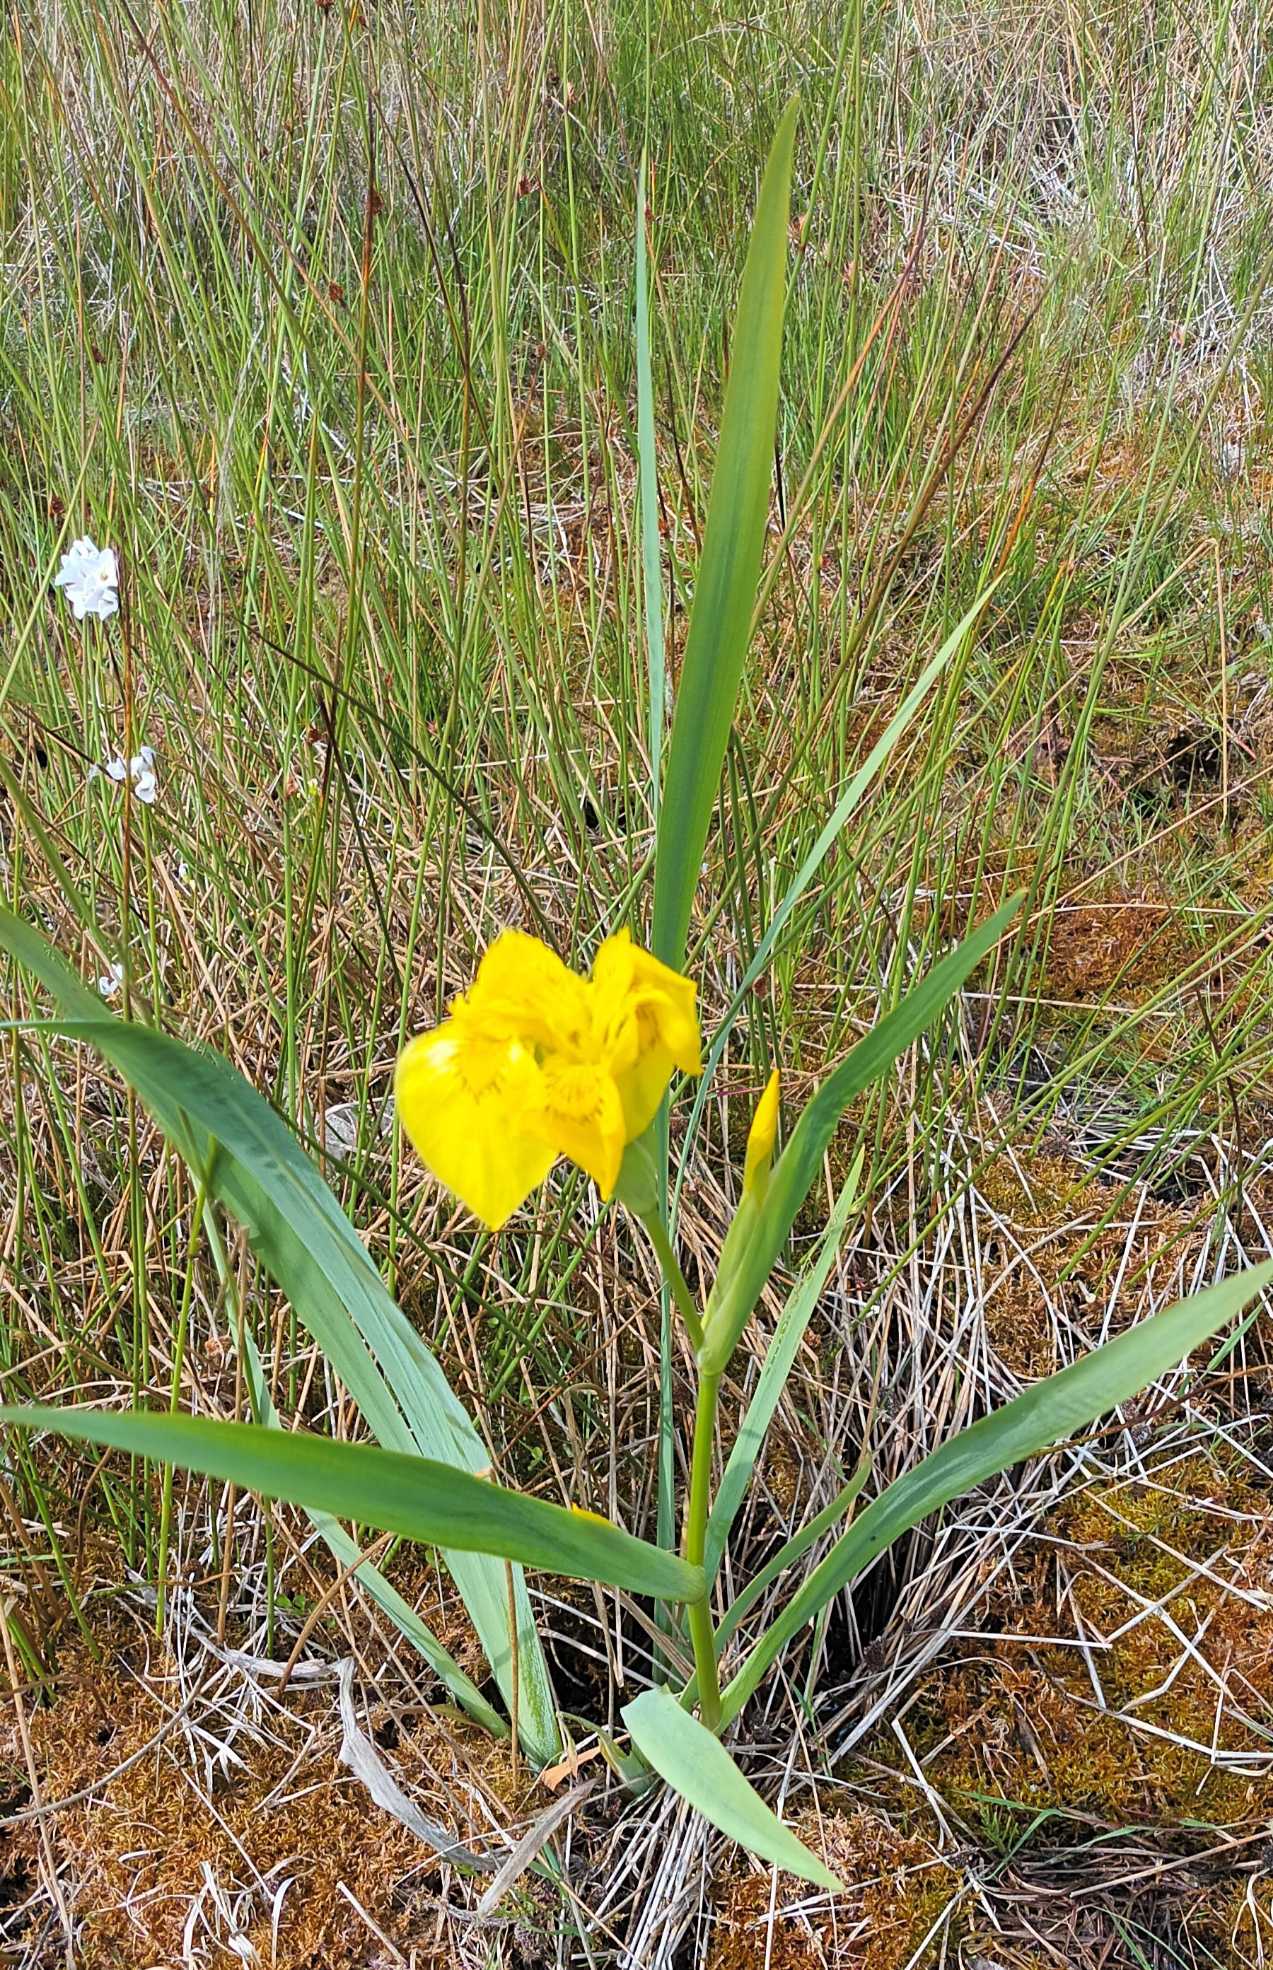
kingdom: Plantae
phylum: Tracheophyta
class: Liliopsida
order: Asparagales
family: Iridaceae
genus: Iris
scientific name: Iris pseudacorus
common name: Gul iris
